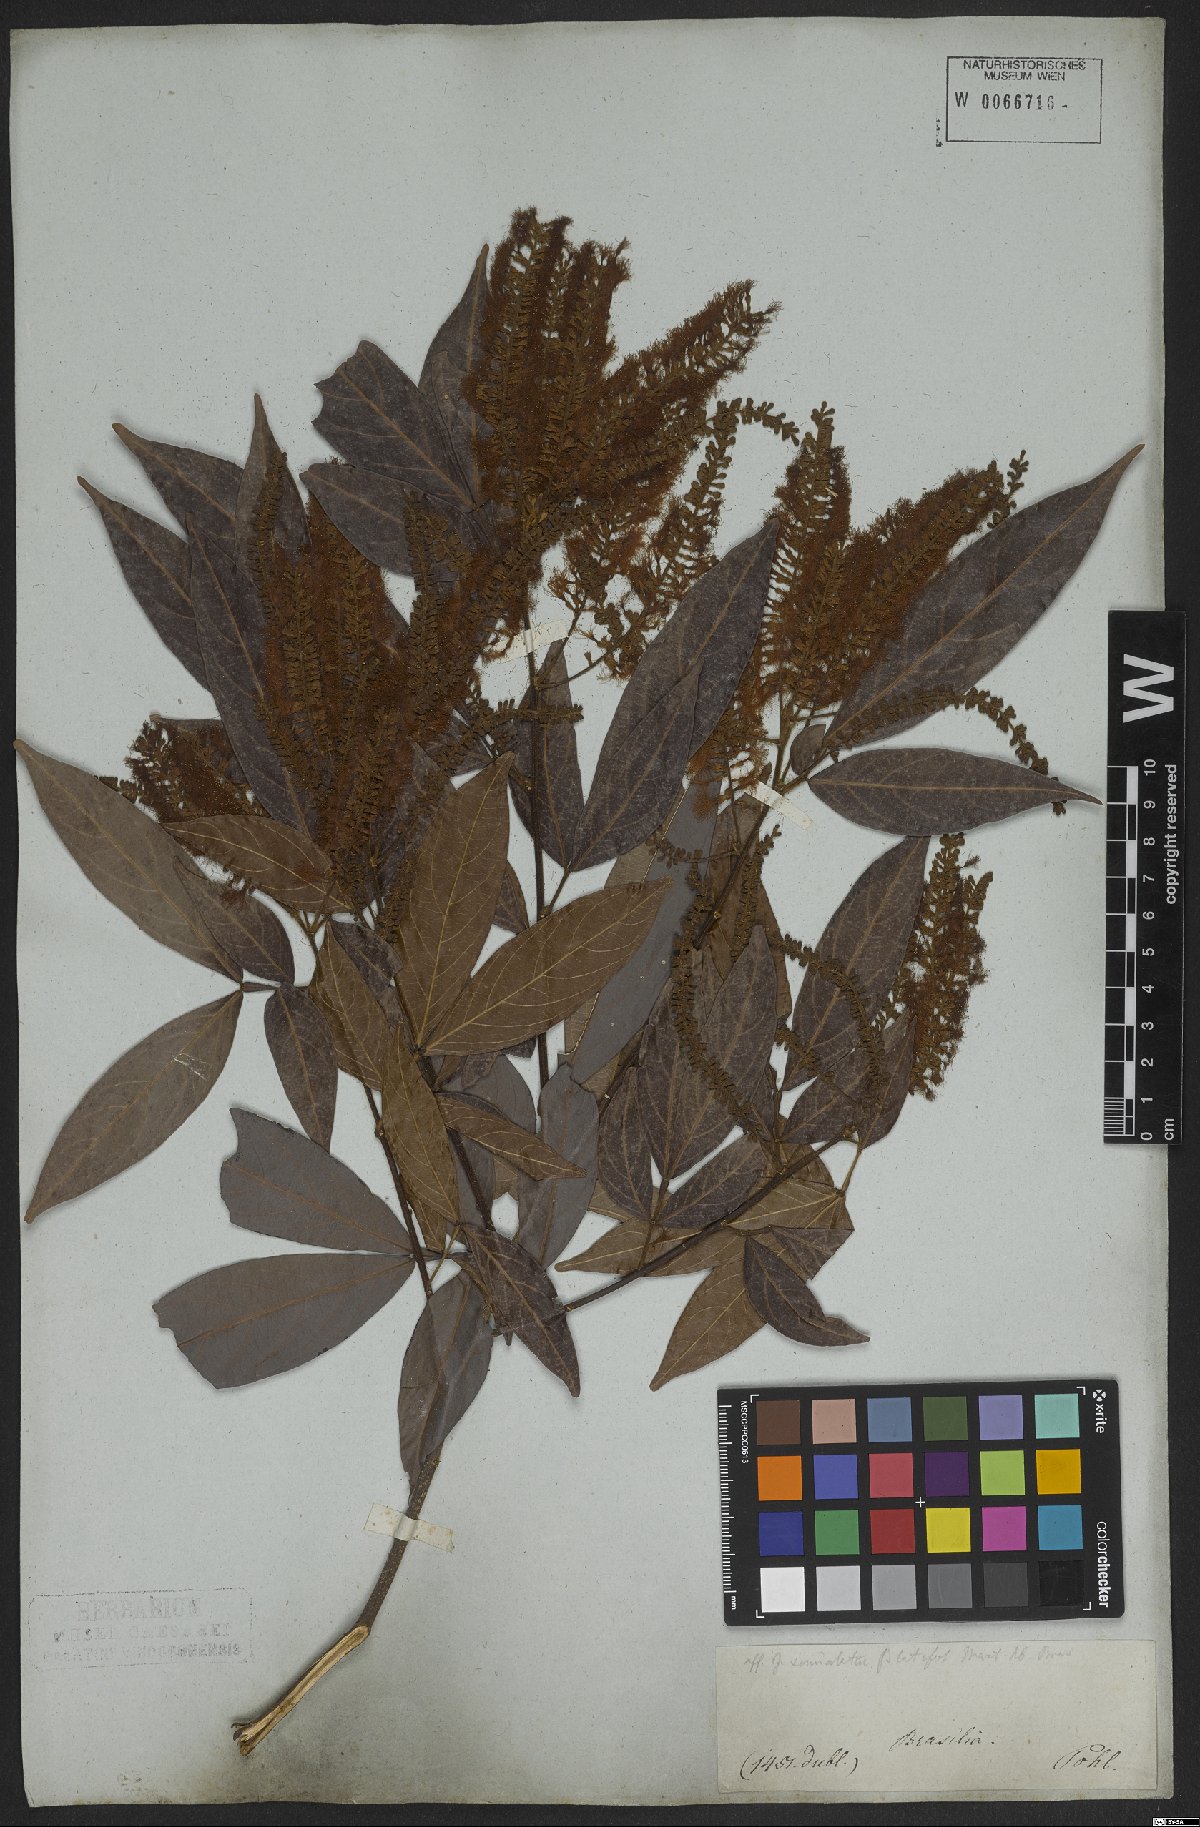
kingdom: Plantae
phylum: Tracheophyta
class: Magnoliopsida
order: Fabales
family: Fabaceae
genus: Inga
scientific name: Inga marginata
